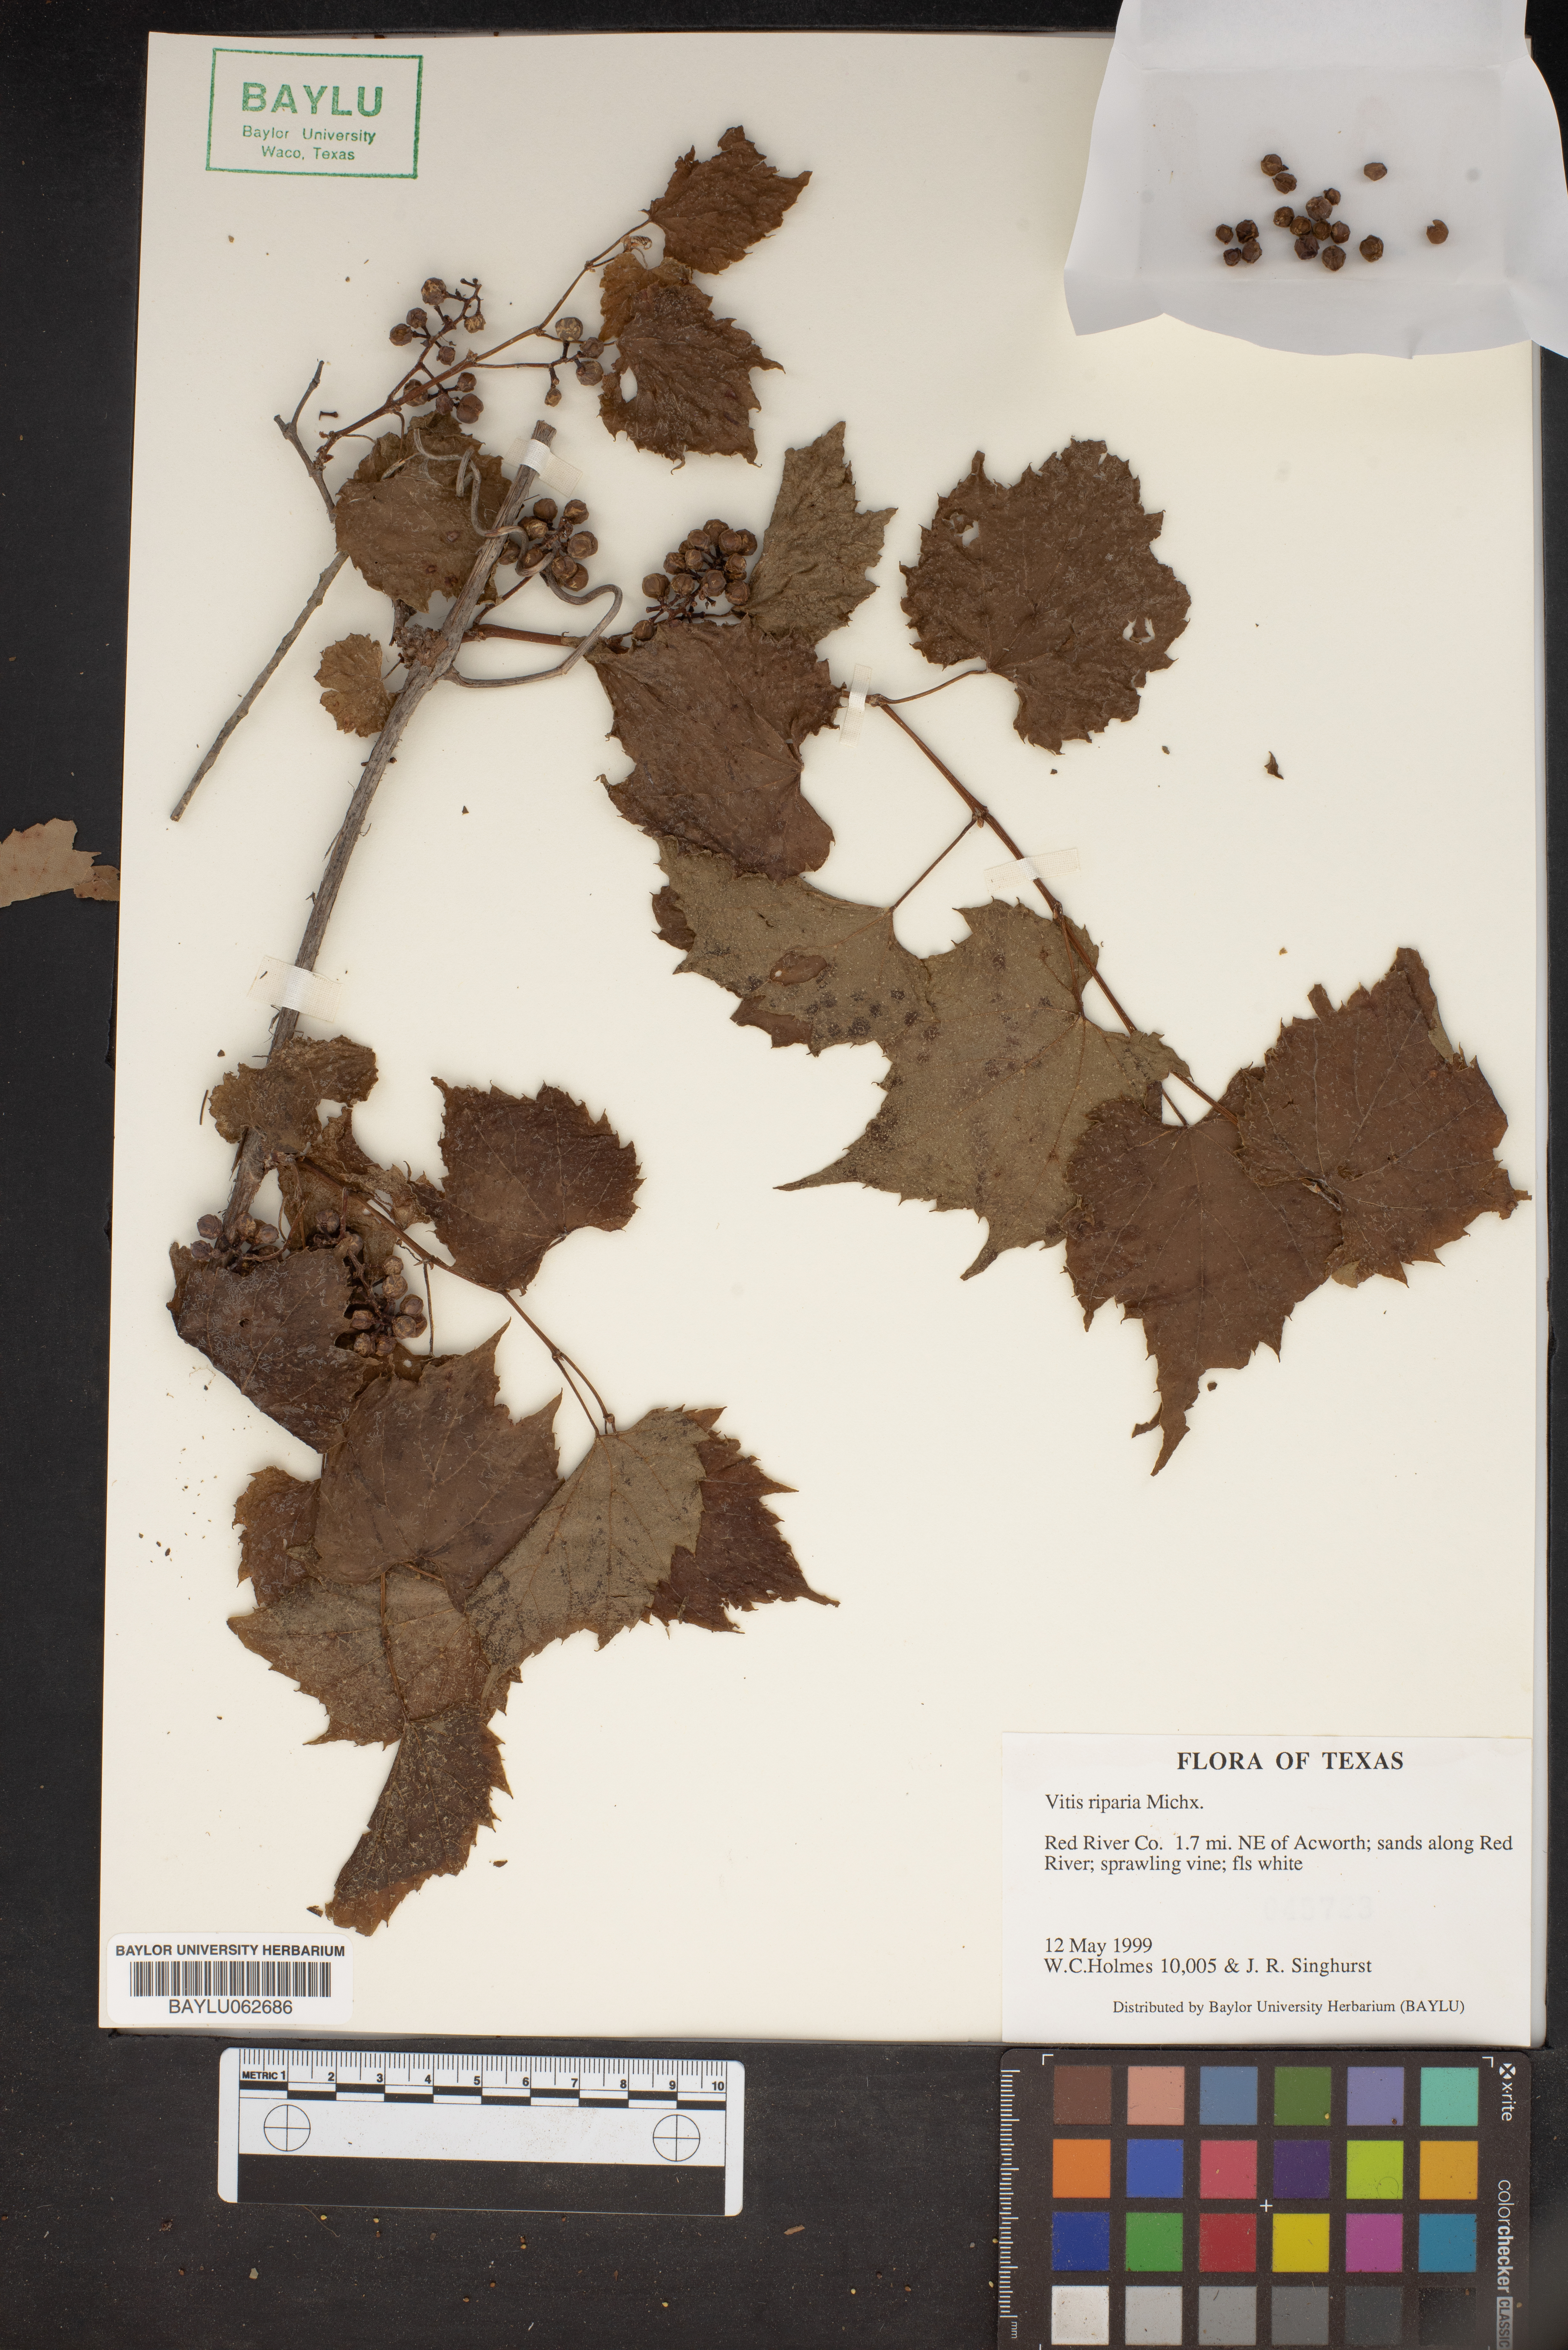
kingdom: Plantae
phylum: Tracheophyta
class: Magnoliopsida
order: Vitales
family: Vitaceae
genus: Vitis
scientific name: Vitis riparia
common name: Frost grape
